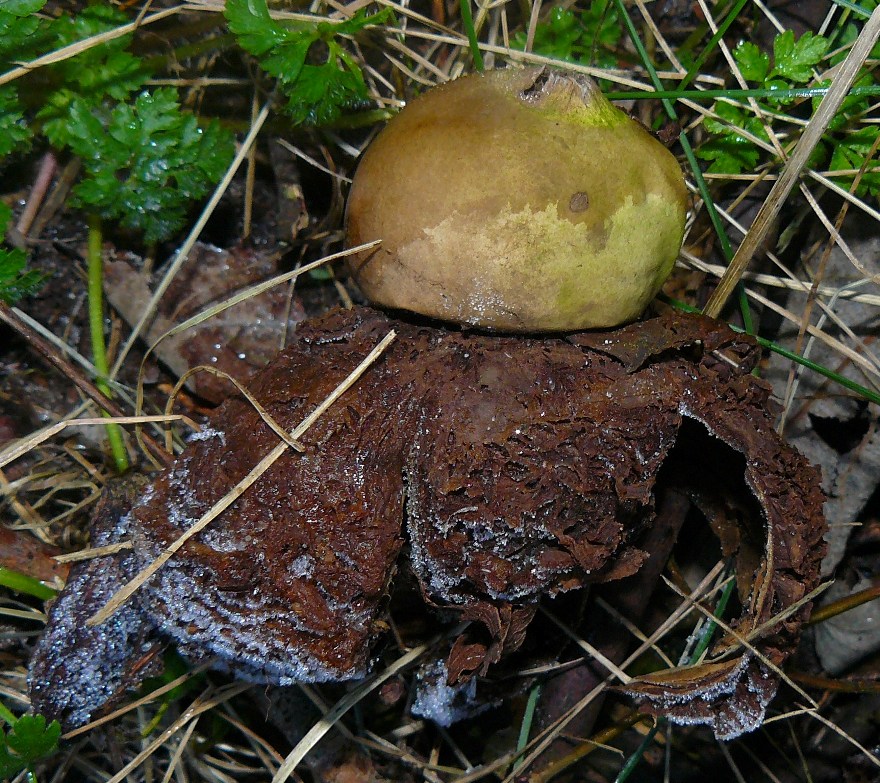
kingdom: Fungi
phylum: Basidiomycota
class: Agaricomycetes
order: Geastrales
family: Geastraceae
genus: Geastrum
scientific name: Geastrum michelianum
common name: kødet stjernebold
